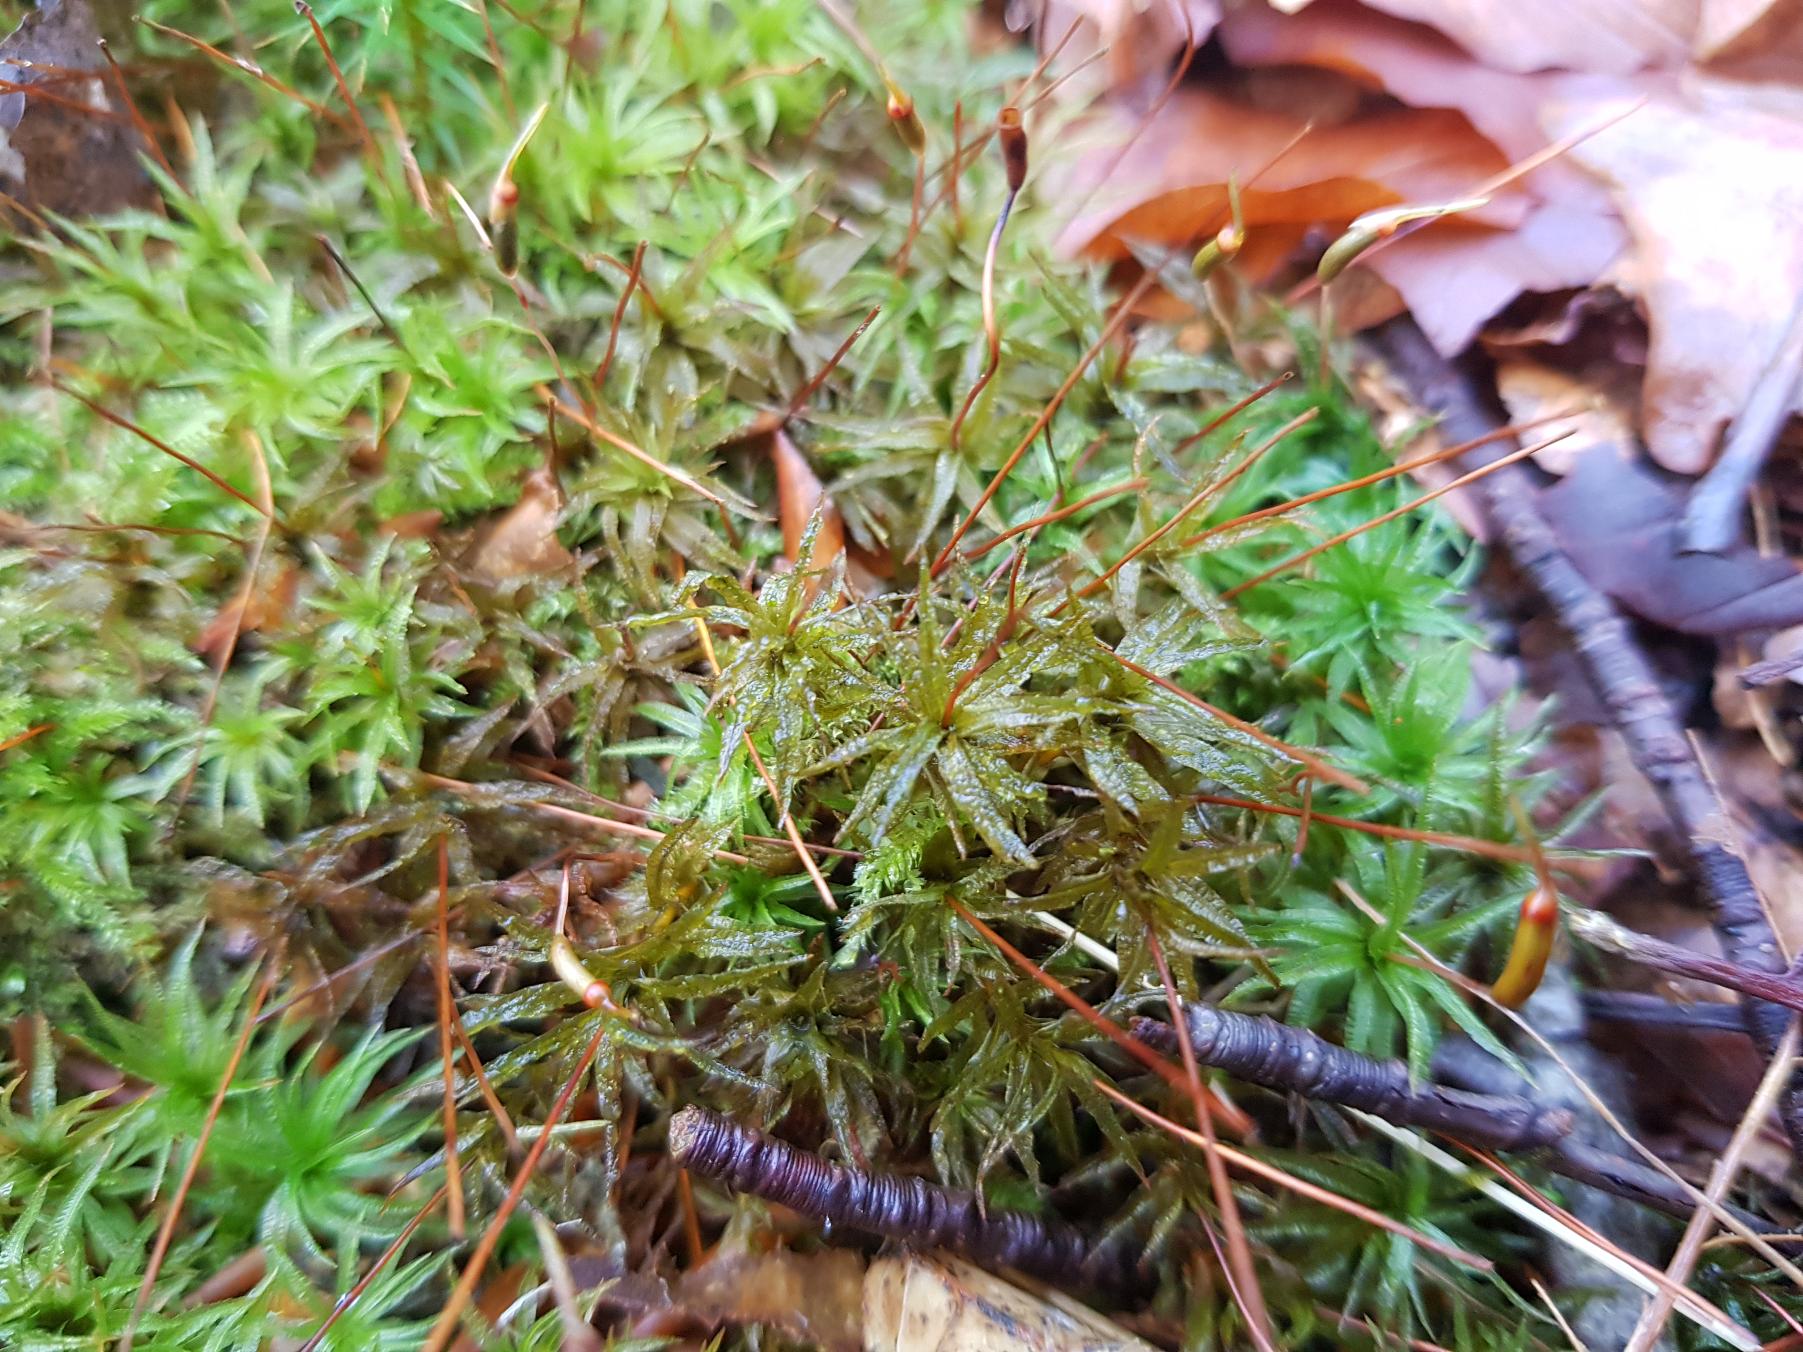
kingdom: Plantae
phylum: Bryophyta
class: Polytrichopsida
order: Polytrichales
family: Polytrichaceae
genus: Atrichum
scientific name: Atrichum undulatum
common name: Bølget katrinemos
